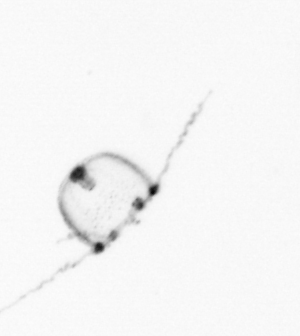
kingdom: Animalia
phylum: Cnidaria
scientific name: Cnidaria
